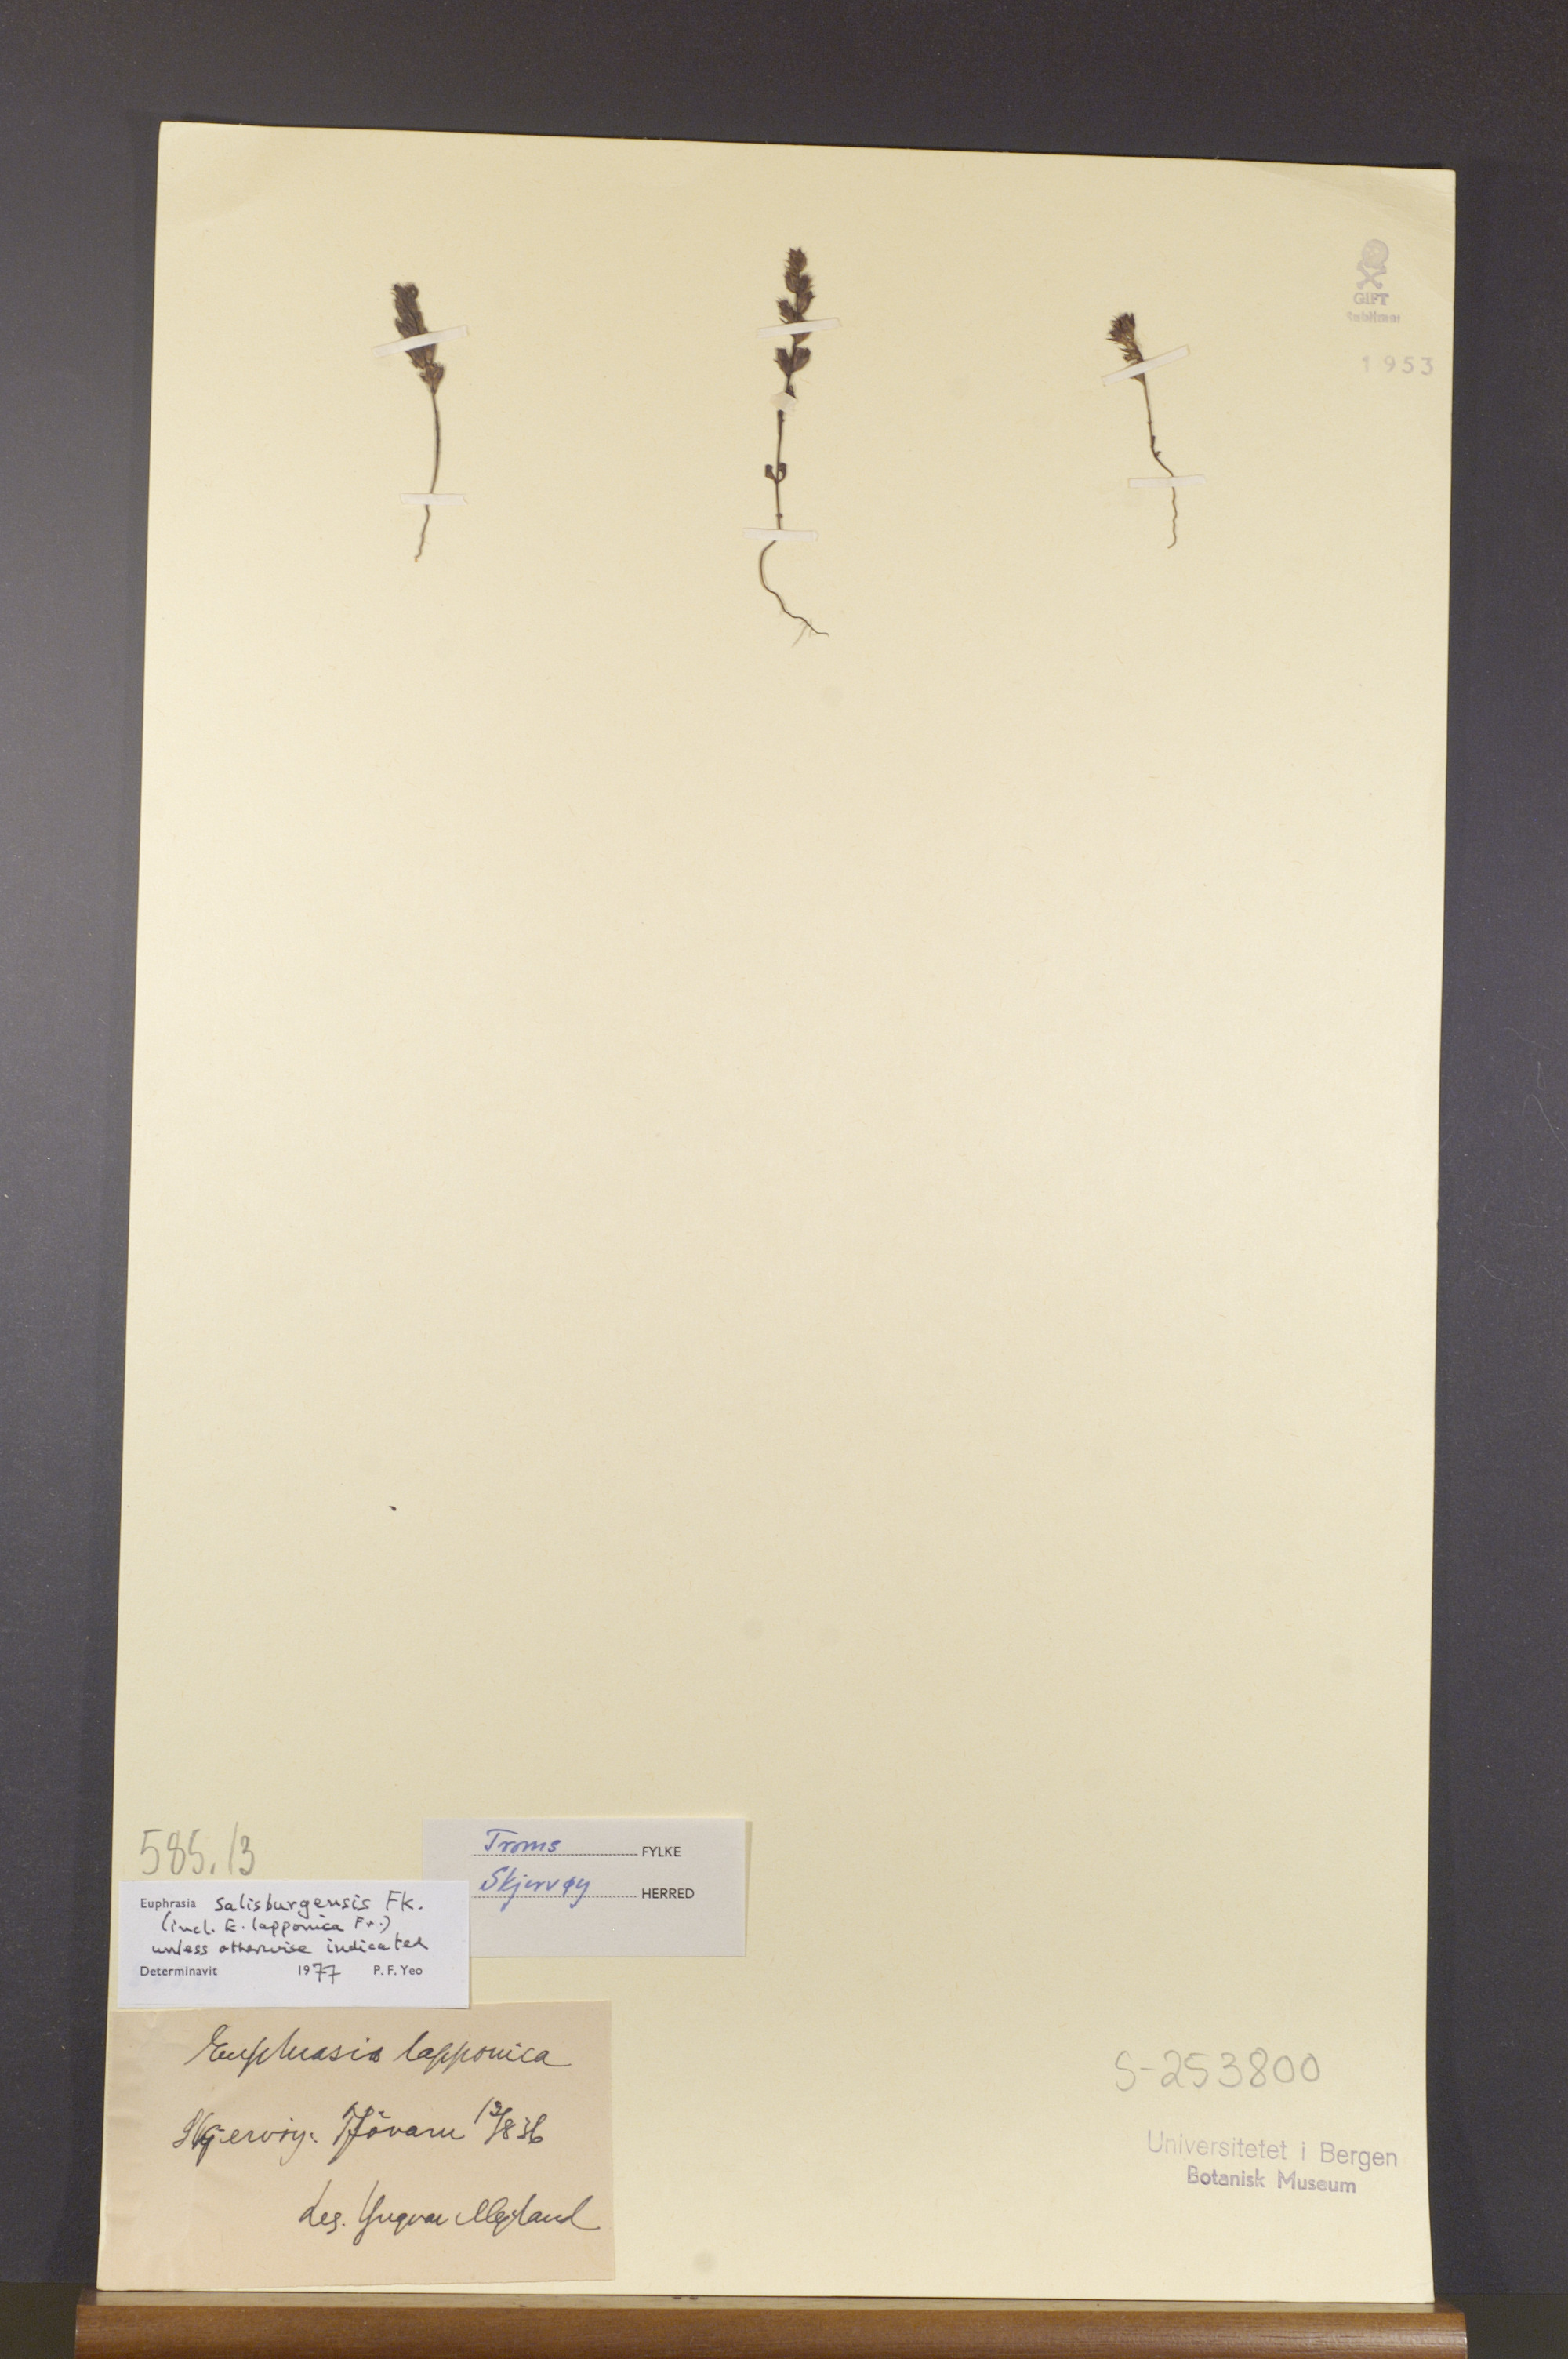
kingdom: Plantae
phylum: Tracheophyta
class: Magnoliopsida
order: Lamiales
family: Orobanchaceae
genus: Euphrasia
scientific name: Euphrasia salisburgensis
